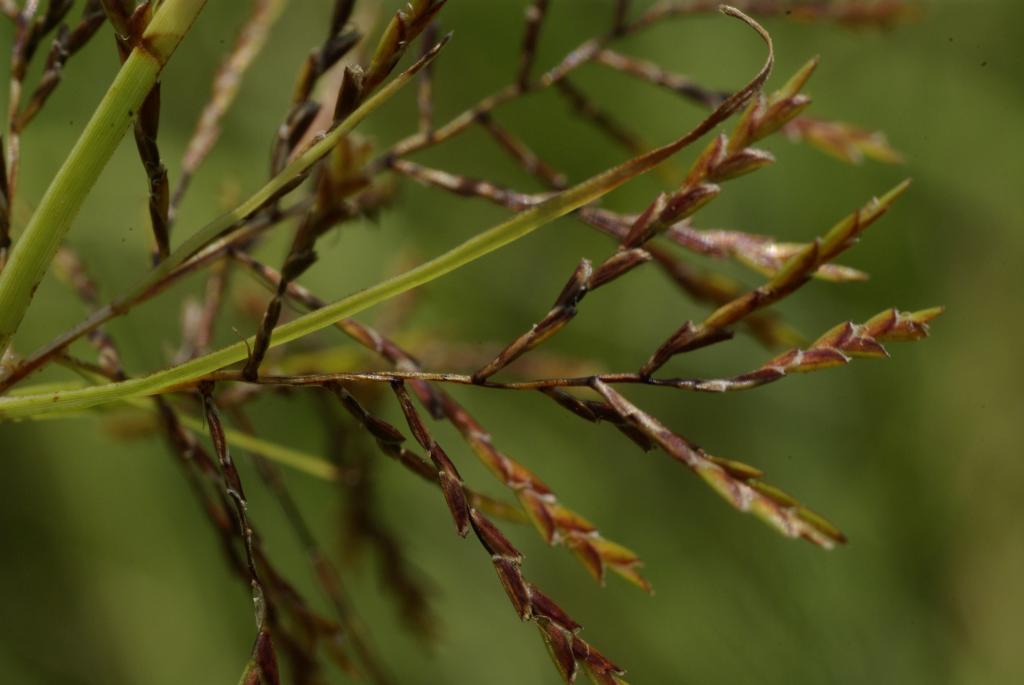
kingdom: Plantae
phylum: Tracheophyta
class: Liliopsida
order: Poales
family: Cyperaceae
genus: Cyperus
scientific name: Cyperus distans
